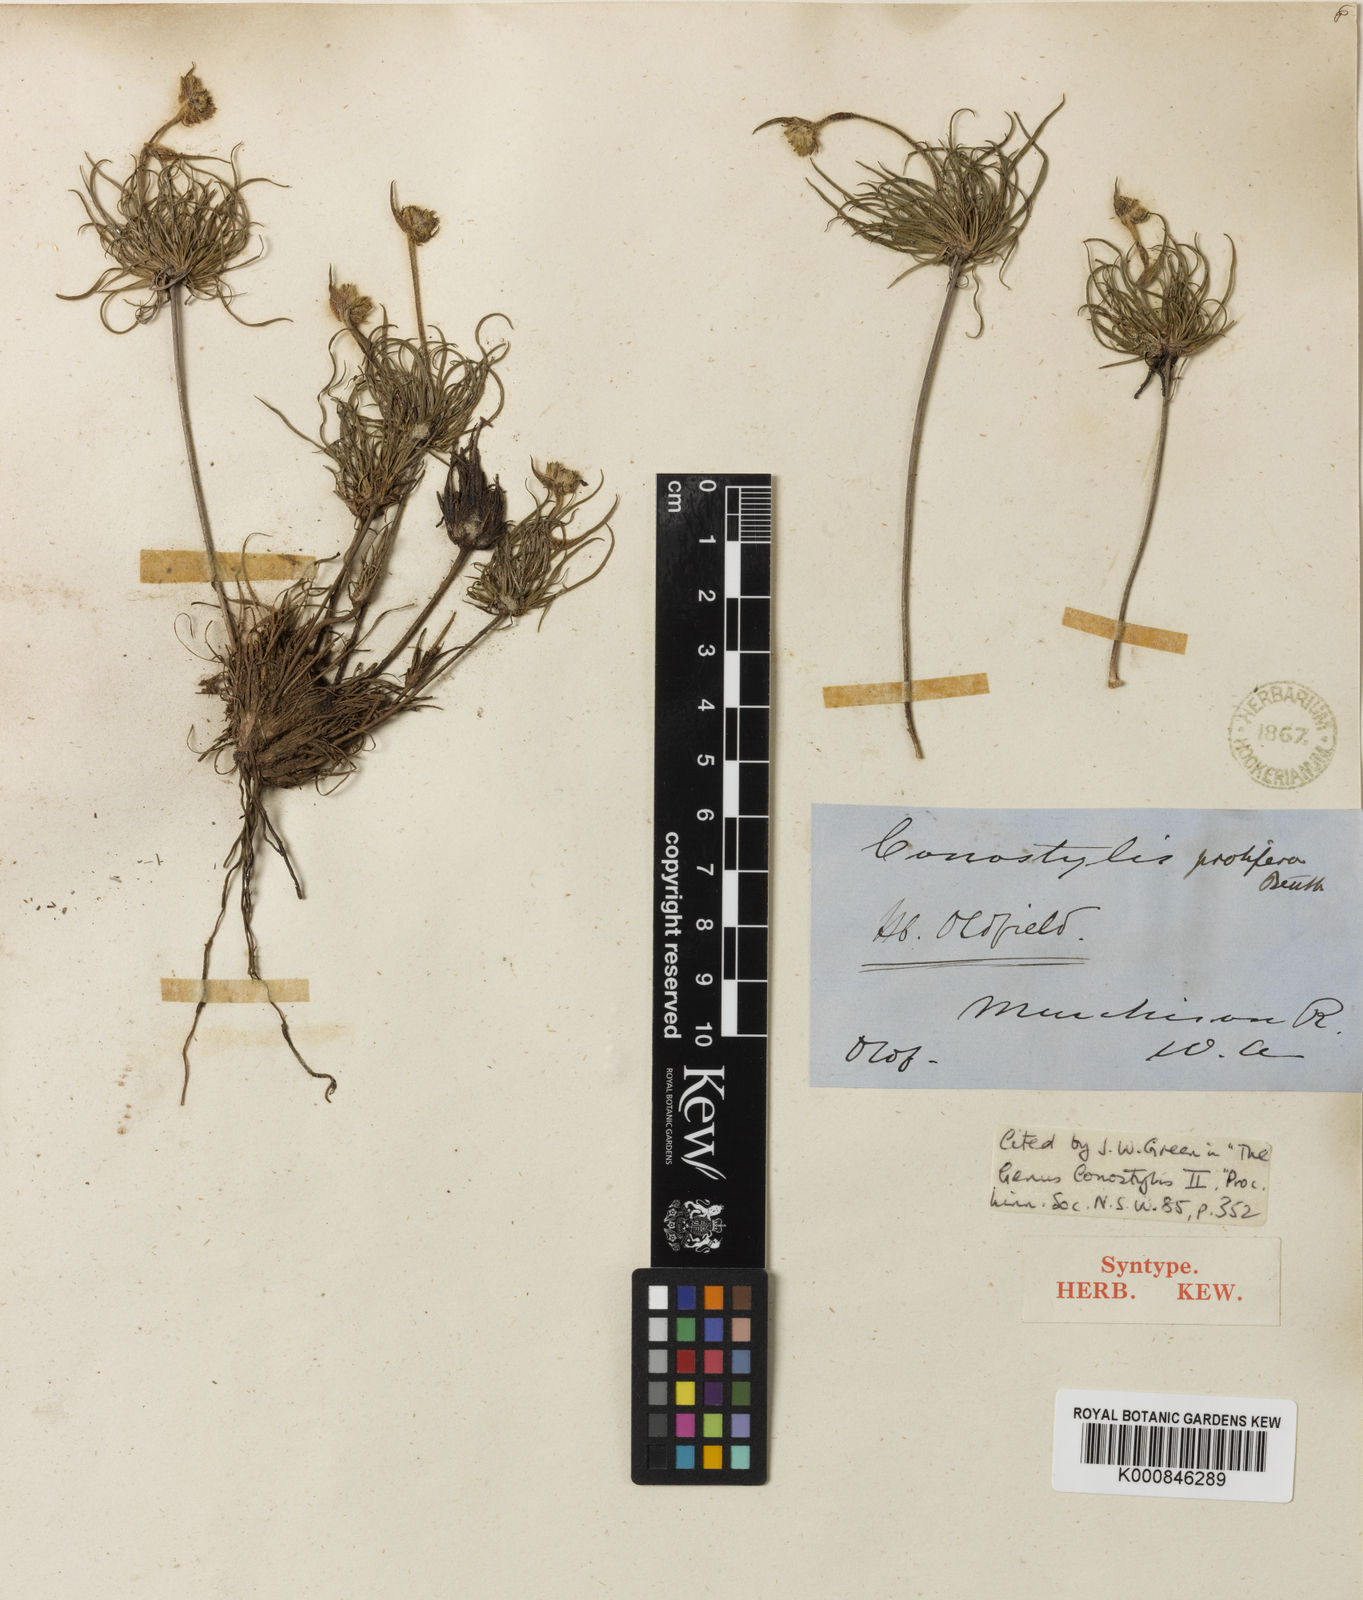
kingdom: Plantae
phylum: Tracheophyta
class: Liliopsida
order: Commelinales
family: Haemodoraceae
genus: Conostylis
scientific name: Conostylis stylidioides
